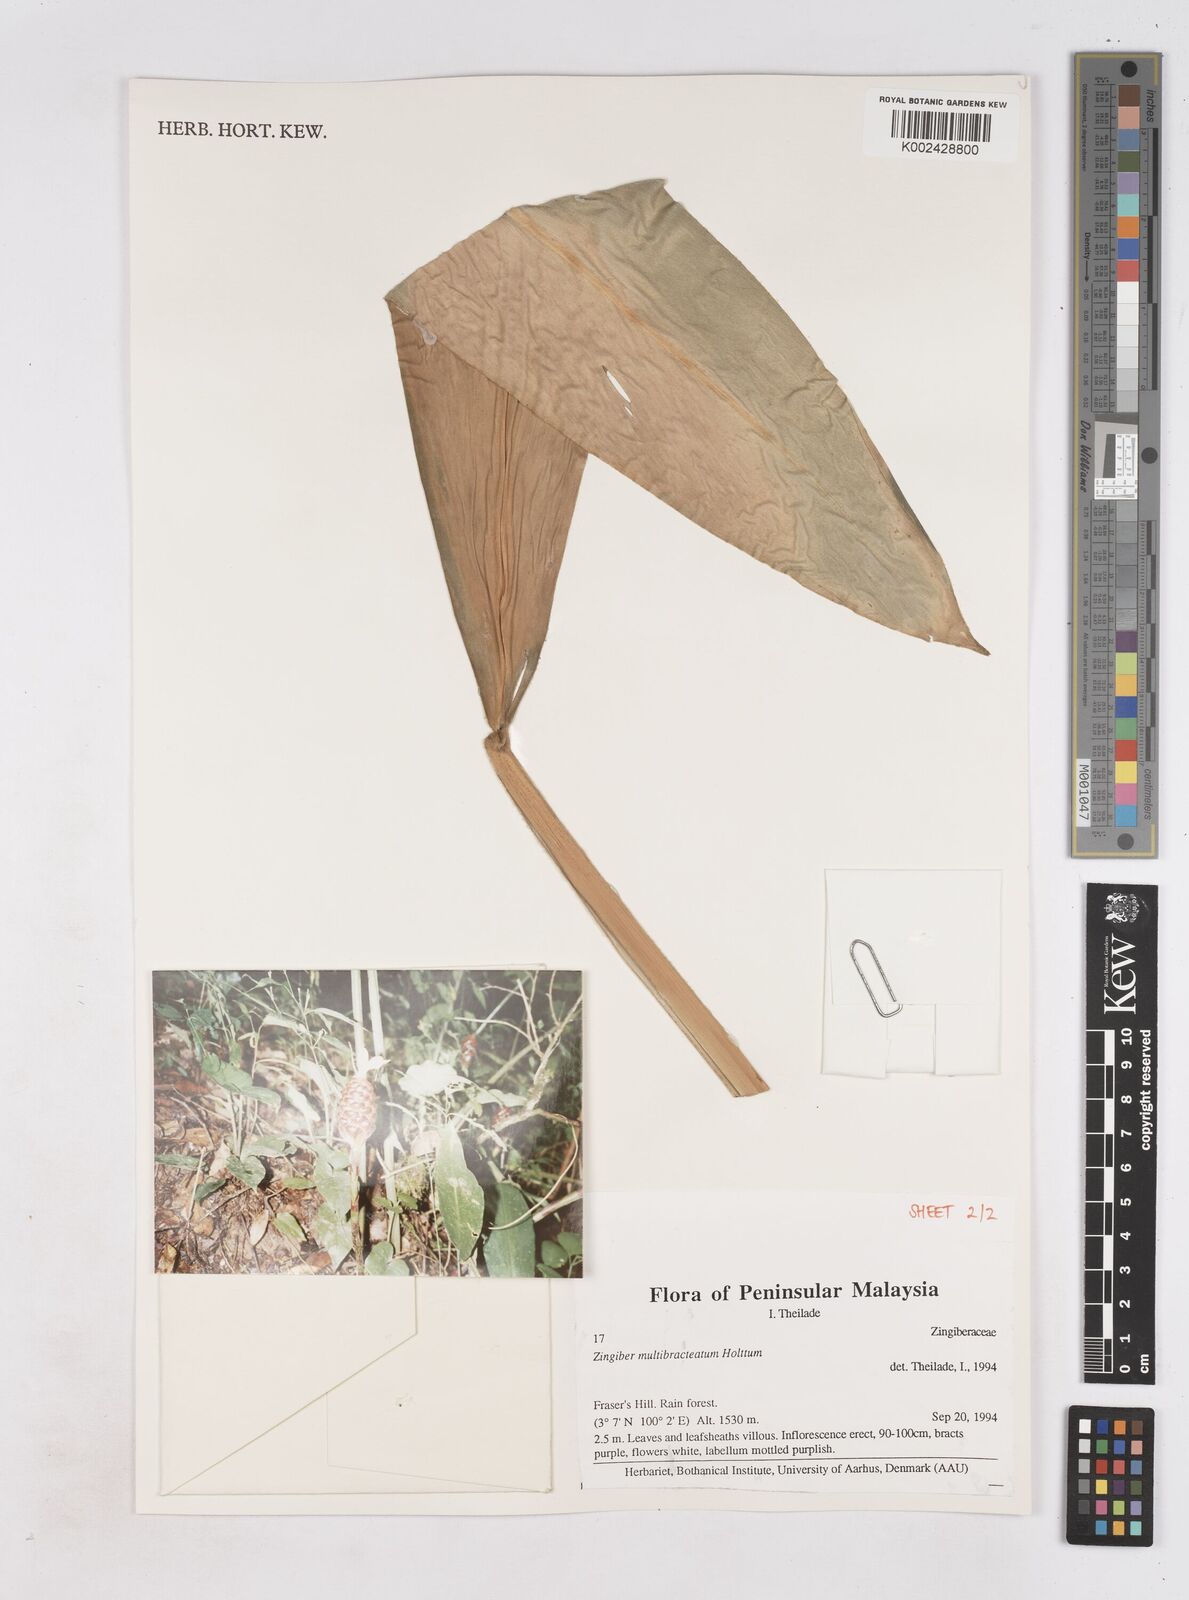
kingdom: Plantae
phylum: Tracheophyta
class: Liliopsida
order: Zingiberales
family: Zingiberaceae
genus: Zingiber
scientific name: Zingiber multibracteatum
